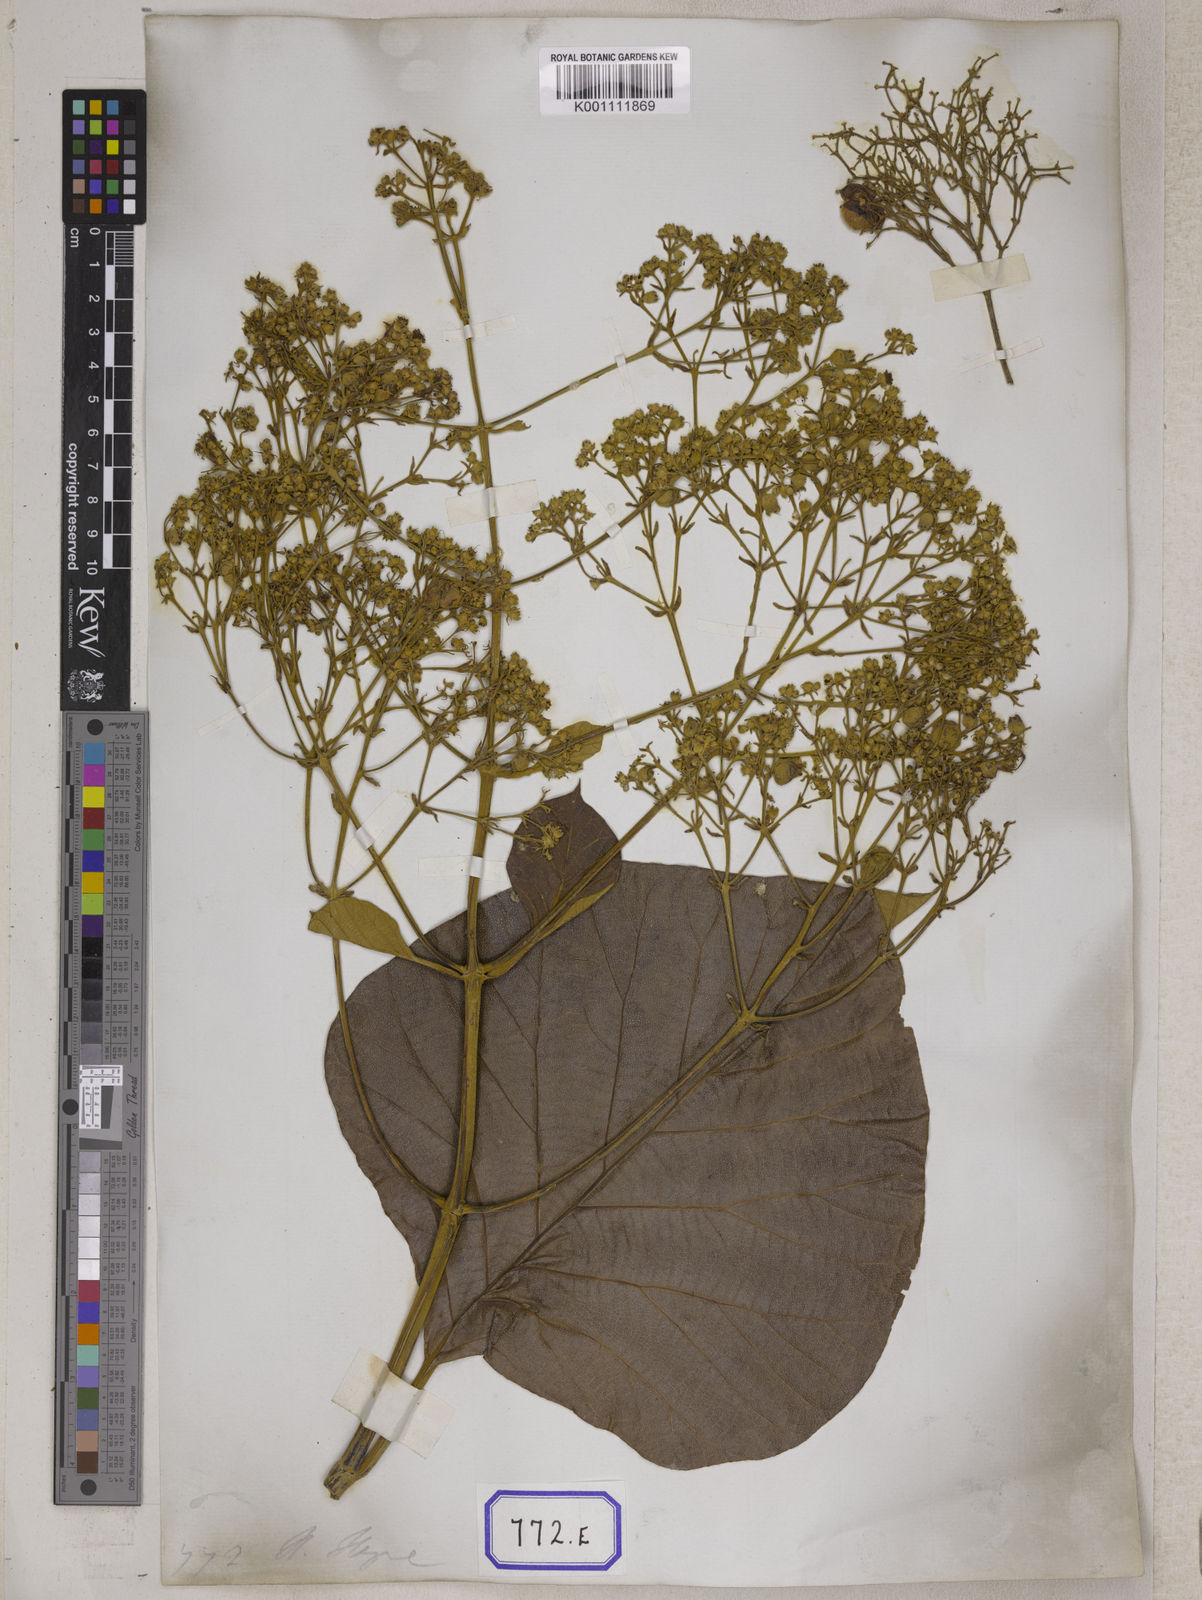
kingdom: Plantae
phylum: Tracheophyta
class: Magnoliopsida
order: Lamiales
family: Lamiaceae
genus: Tectona
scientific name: Tectona
